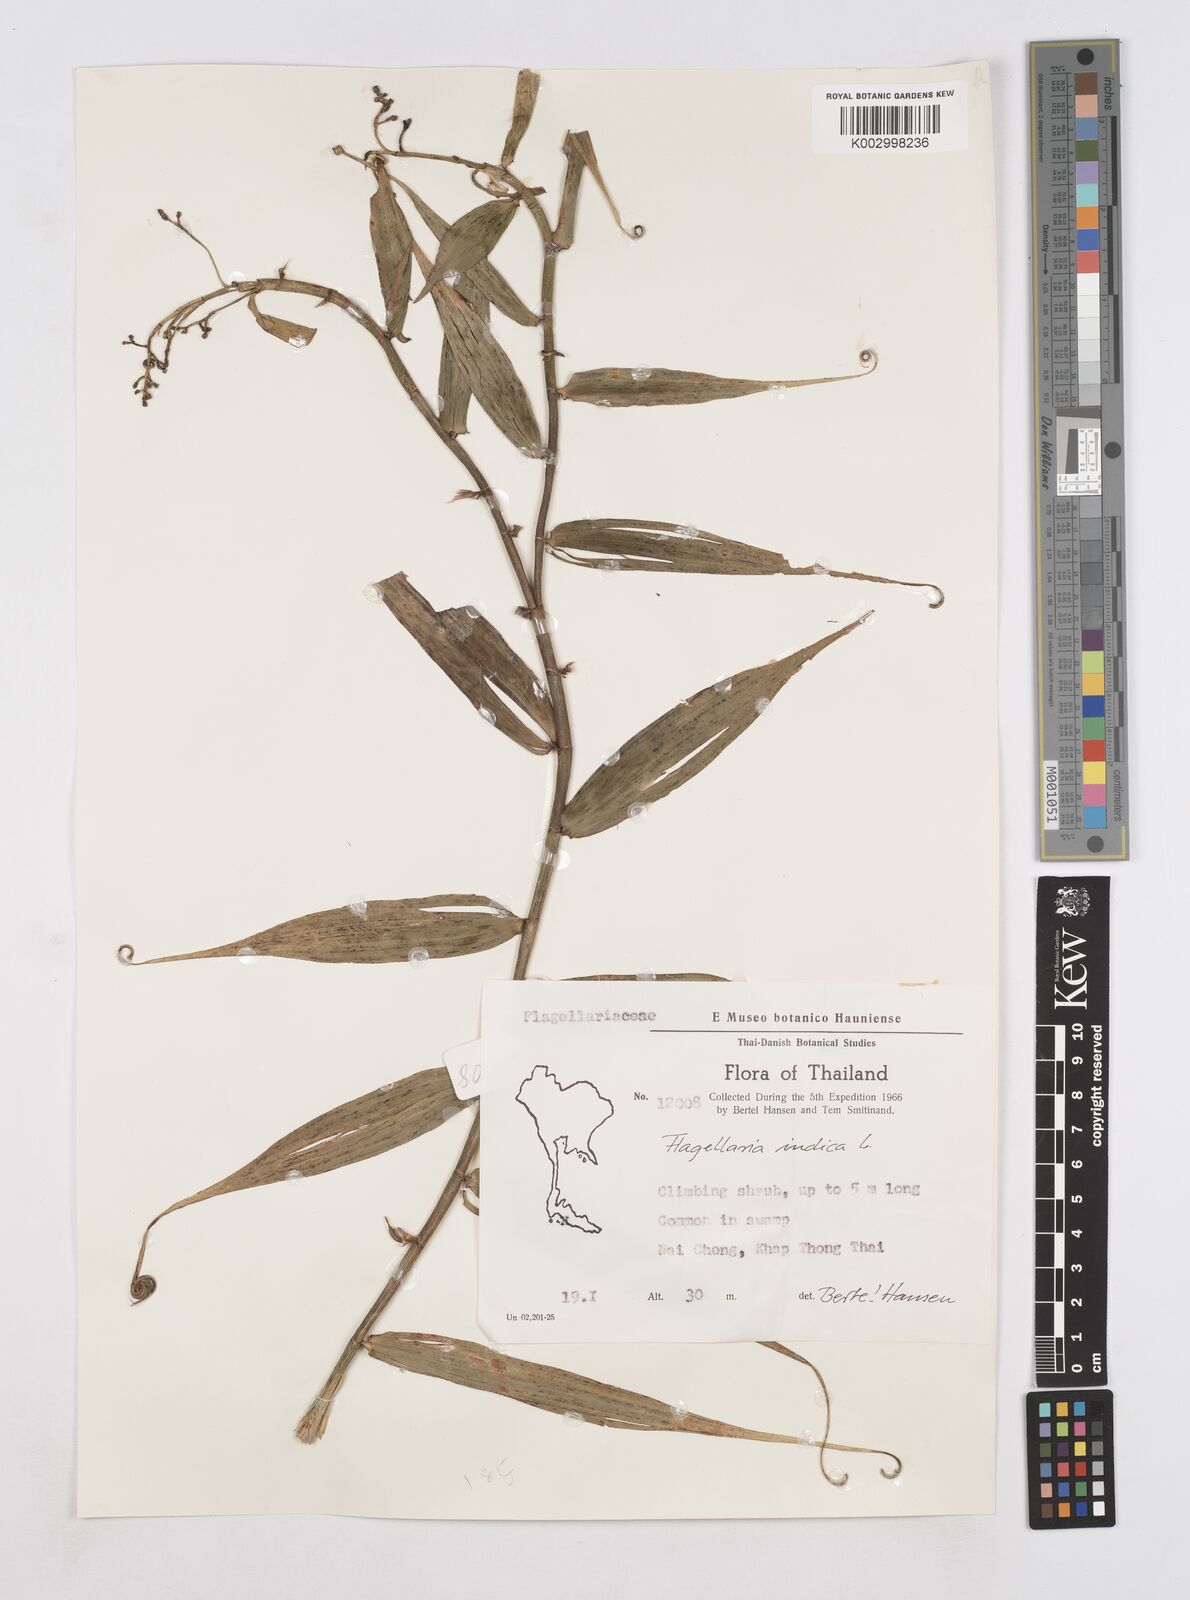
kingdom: Plantae
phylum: Tracheophyta
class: Liliopsida
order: Poales
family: Flagellariaceae
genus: Flagellaria
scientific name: Flagellaria indica
